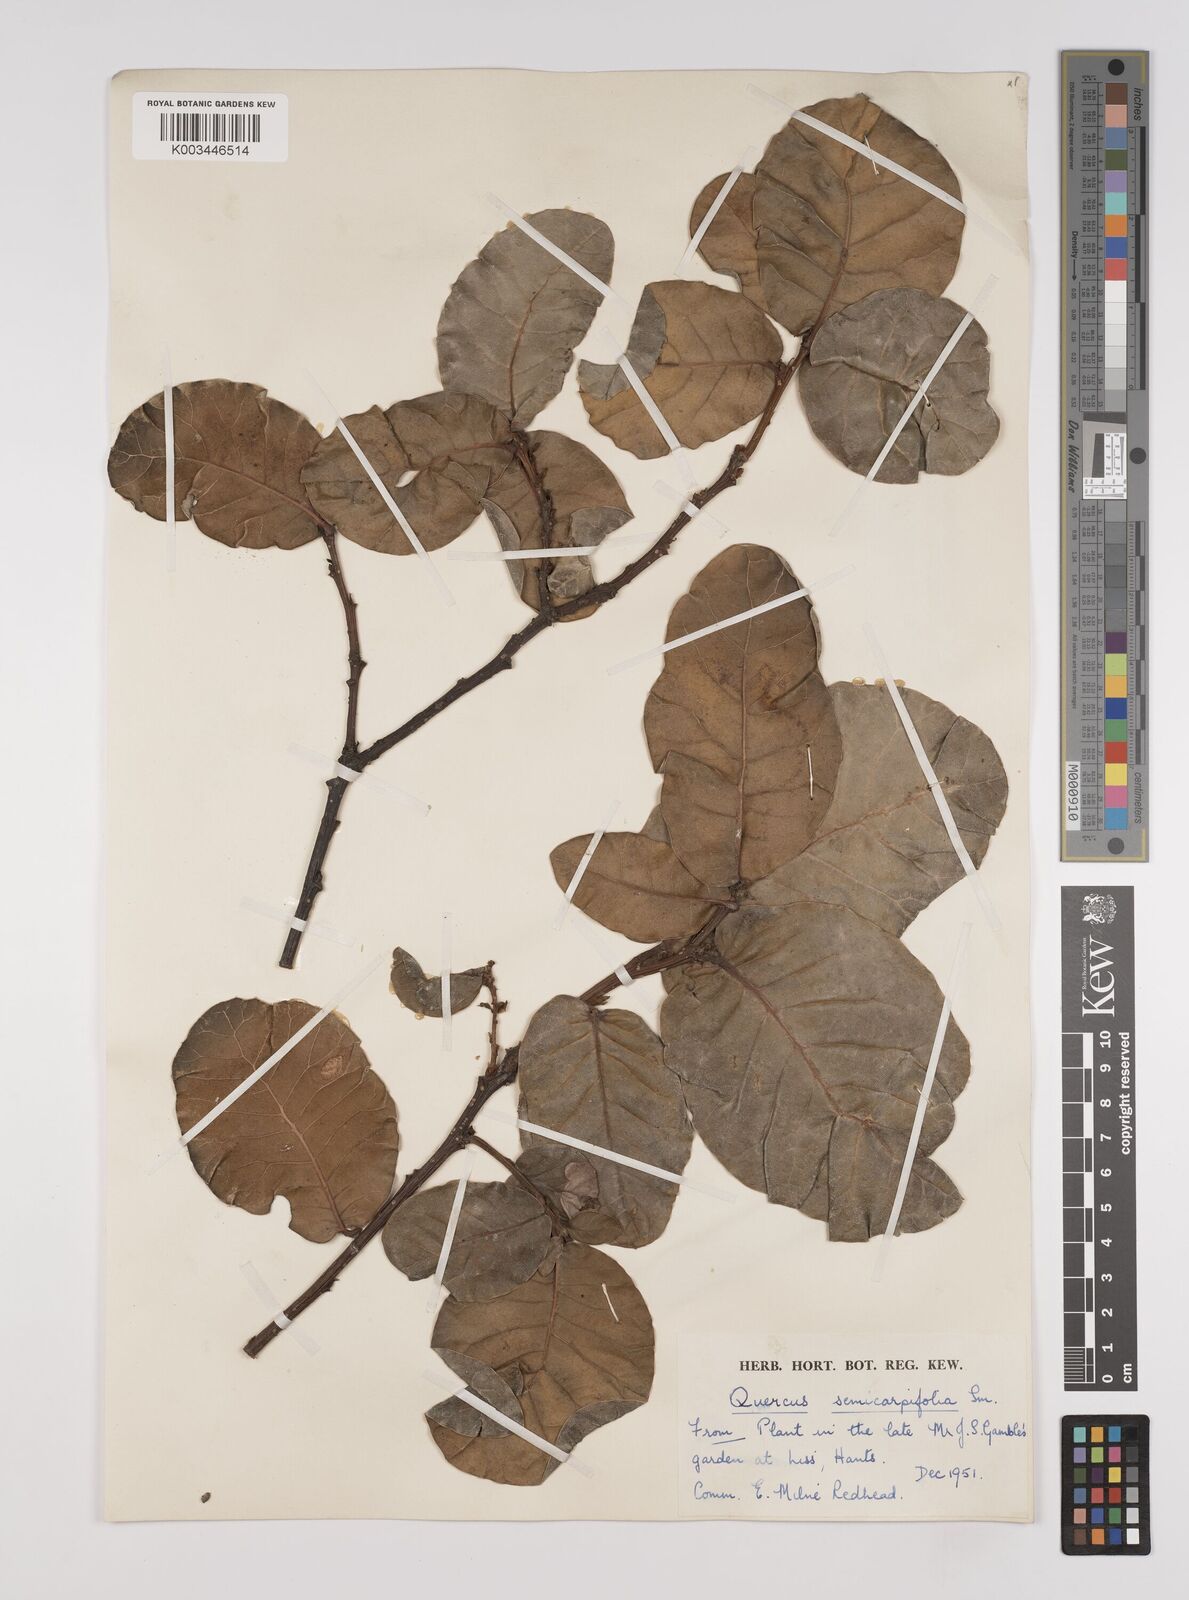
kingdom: Plantae
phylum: Tracheophyta
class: Magnoliopsida
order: Fagales
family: Fagaceae
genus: Quercus
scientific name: Quercus semecarpifolia
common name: Brown oak
